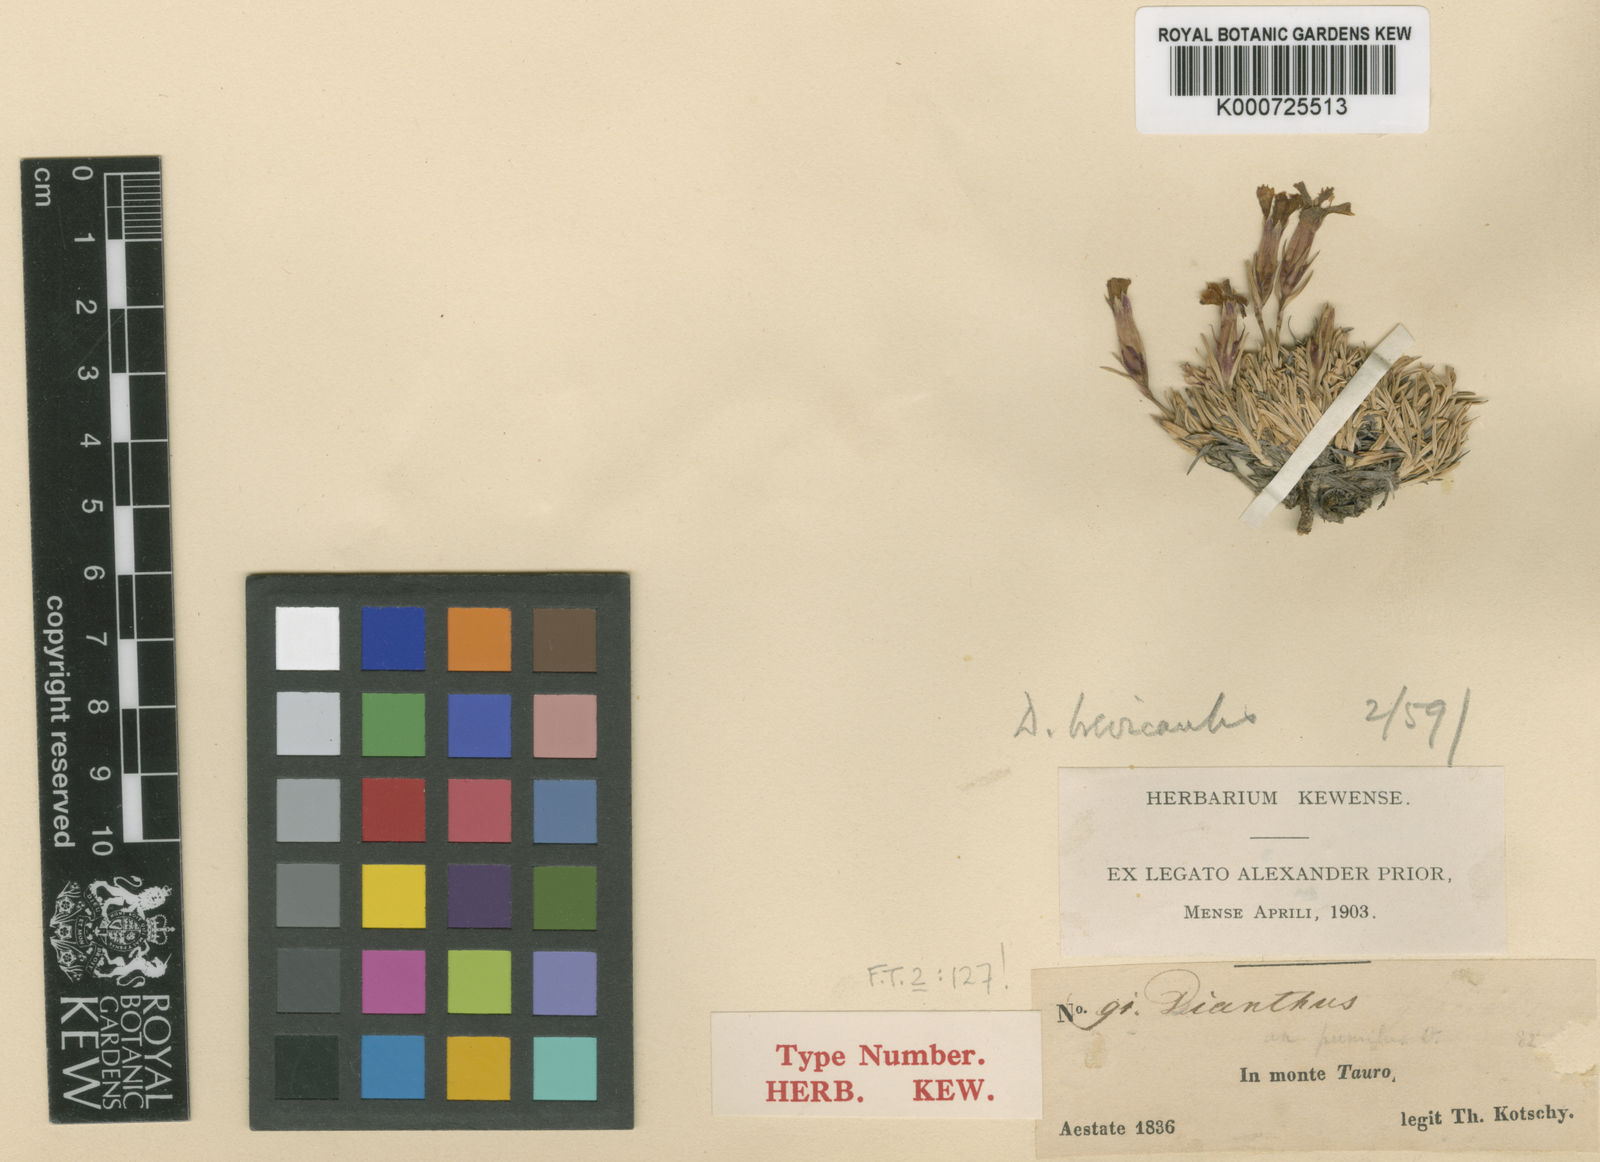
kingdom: Plantae
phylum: Tracheophyta
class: Magnoliopsida
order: Caryophyllales
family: Caryophyllaceae
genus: Dianthus
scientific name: Dianthus brevicaulis
